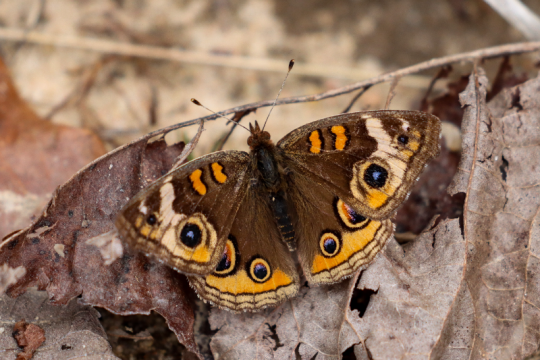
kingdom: Animalia
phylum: Arthropoda
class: Insecta
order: Lepidoptera
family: Nymphalidae
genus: Junonia
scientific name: Junonia coenia
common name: Common Buckeye
